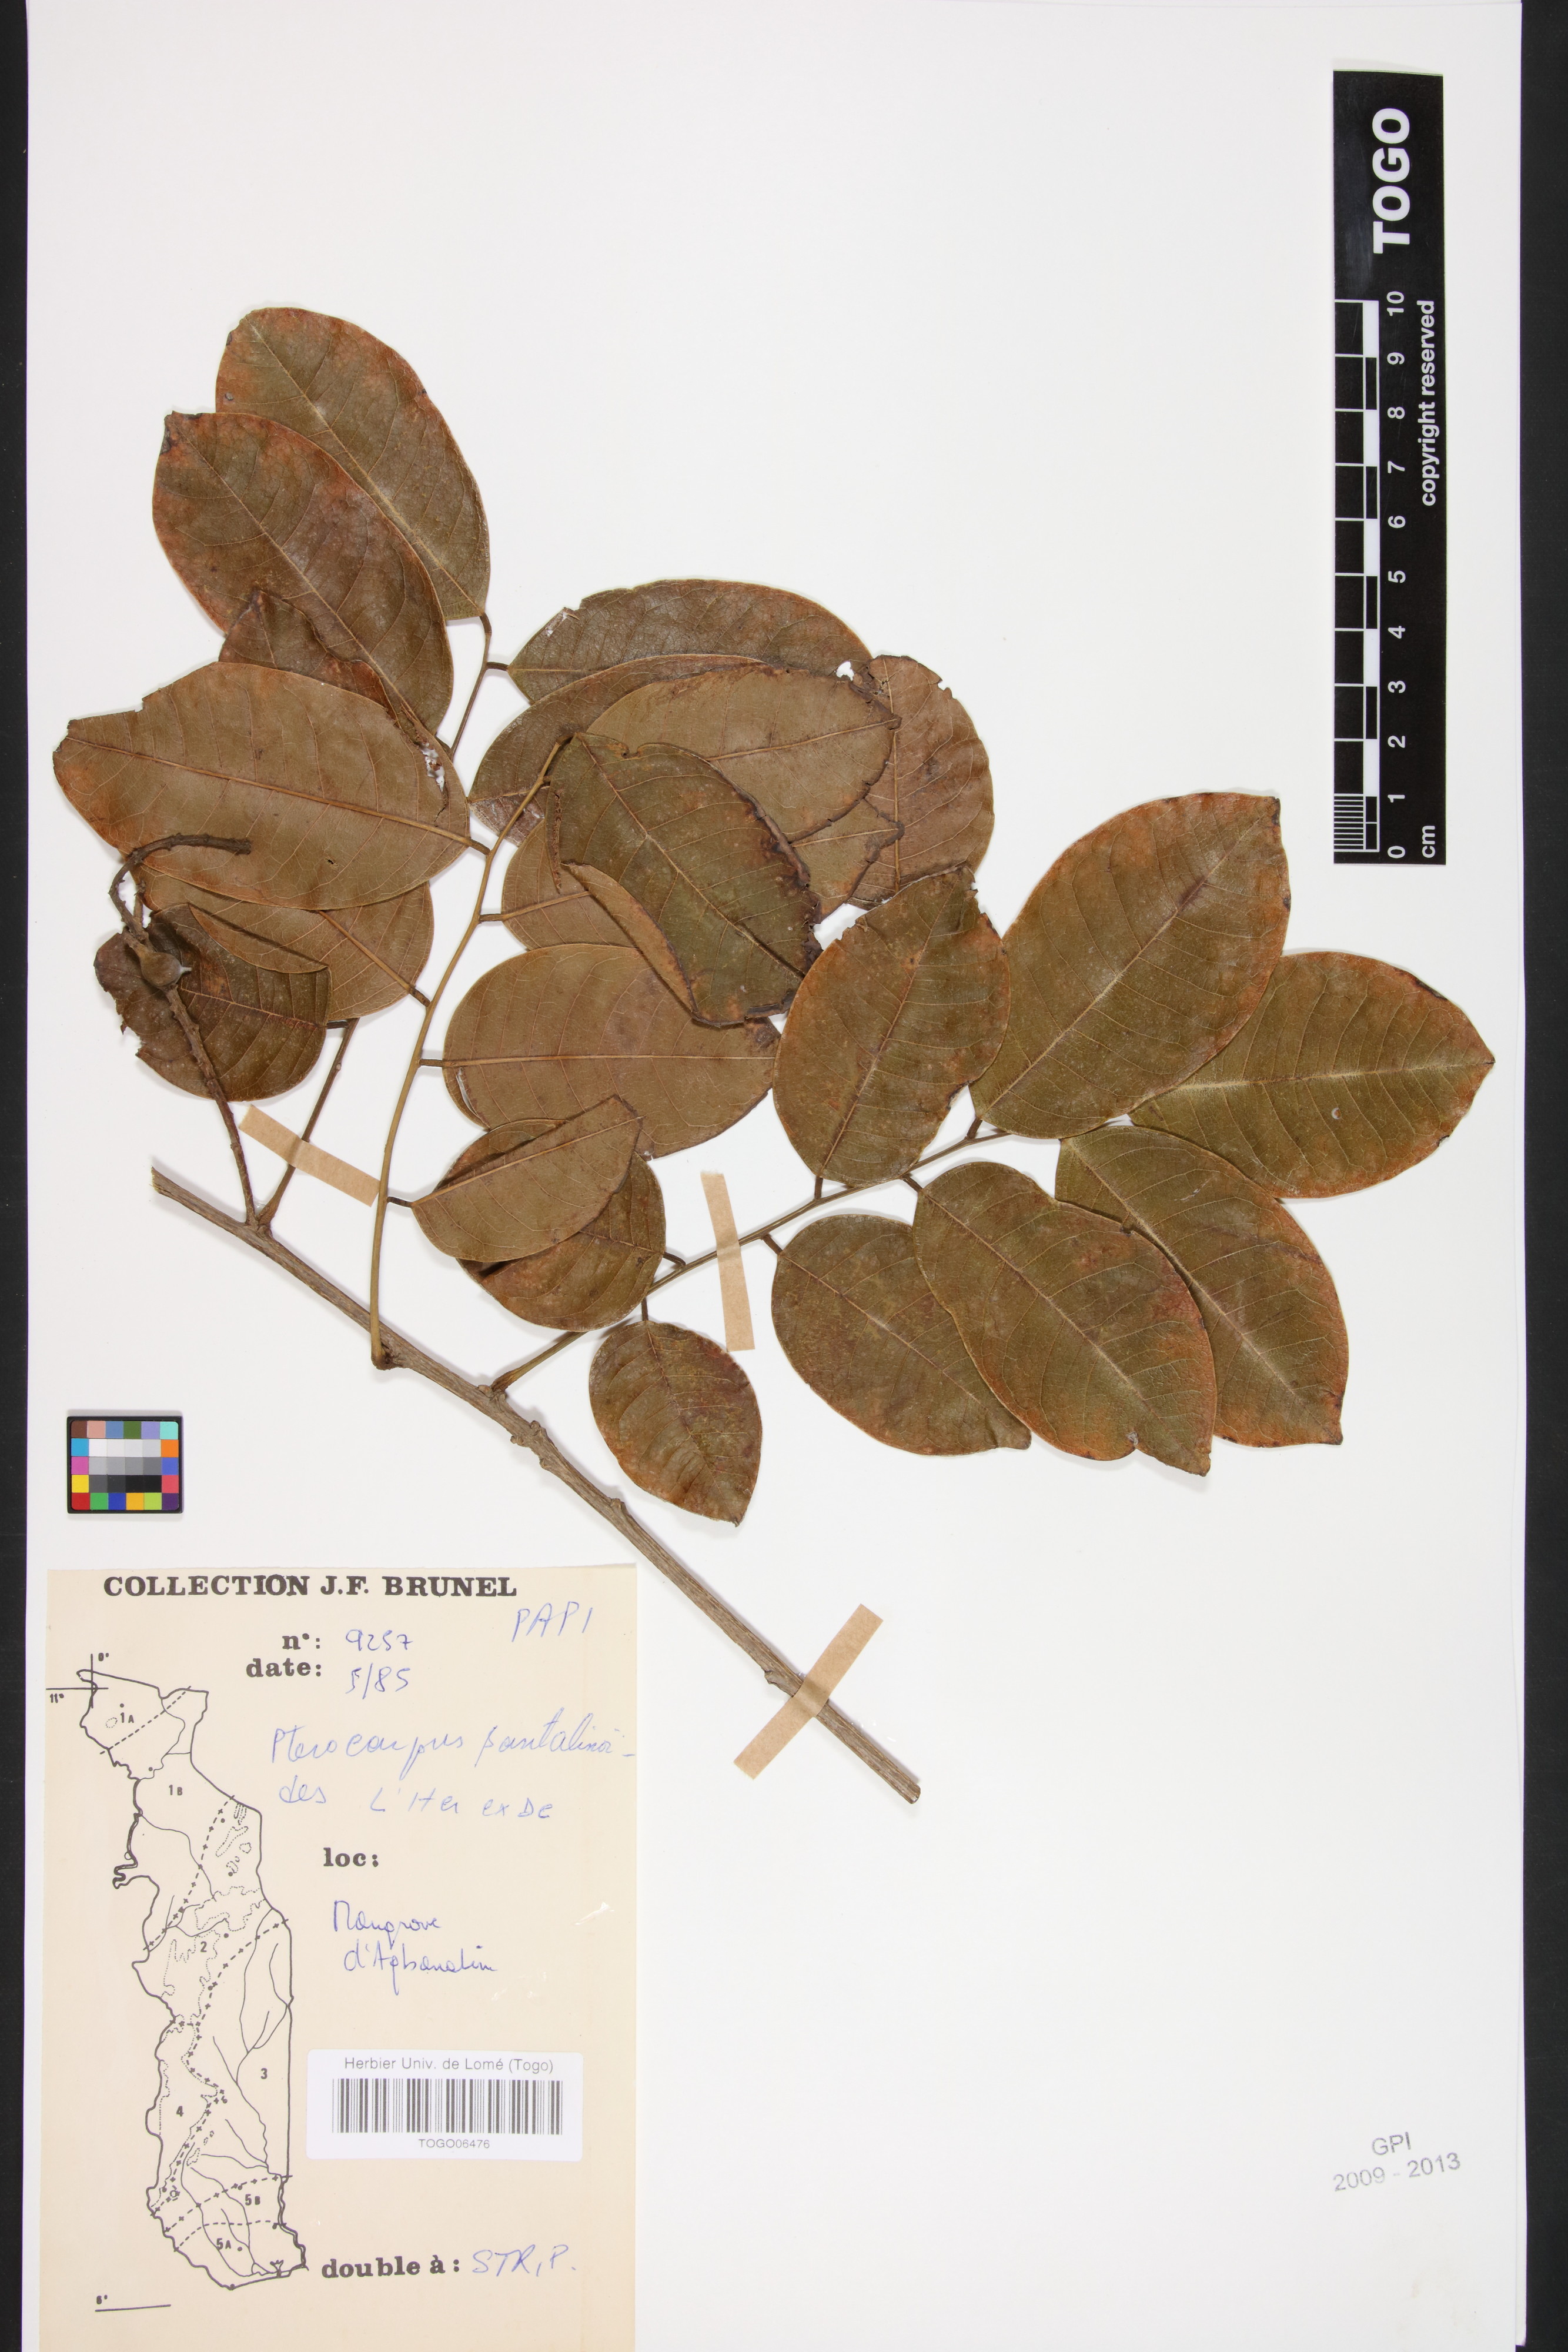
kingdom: Plantae
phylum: Tracheophyta
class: Magnoliopsida
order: Fabales
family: Fabaceae
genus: Pterocarpus
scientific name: Pterocarpus santalinoides
